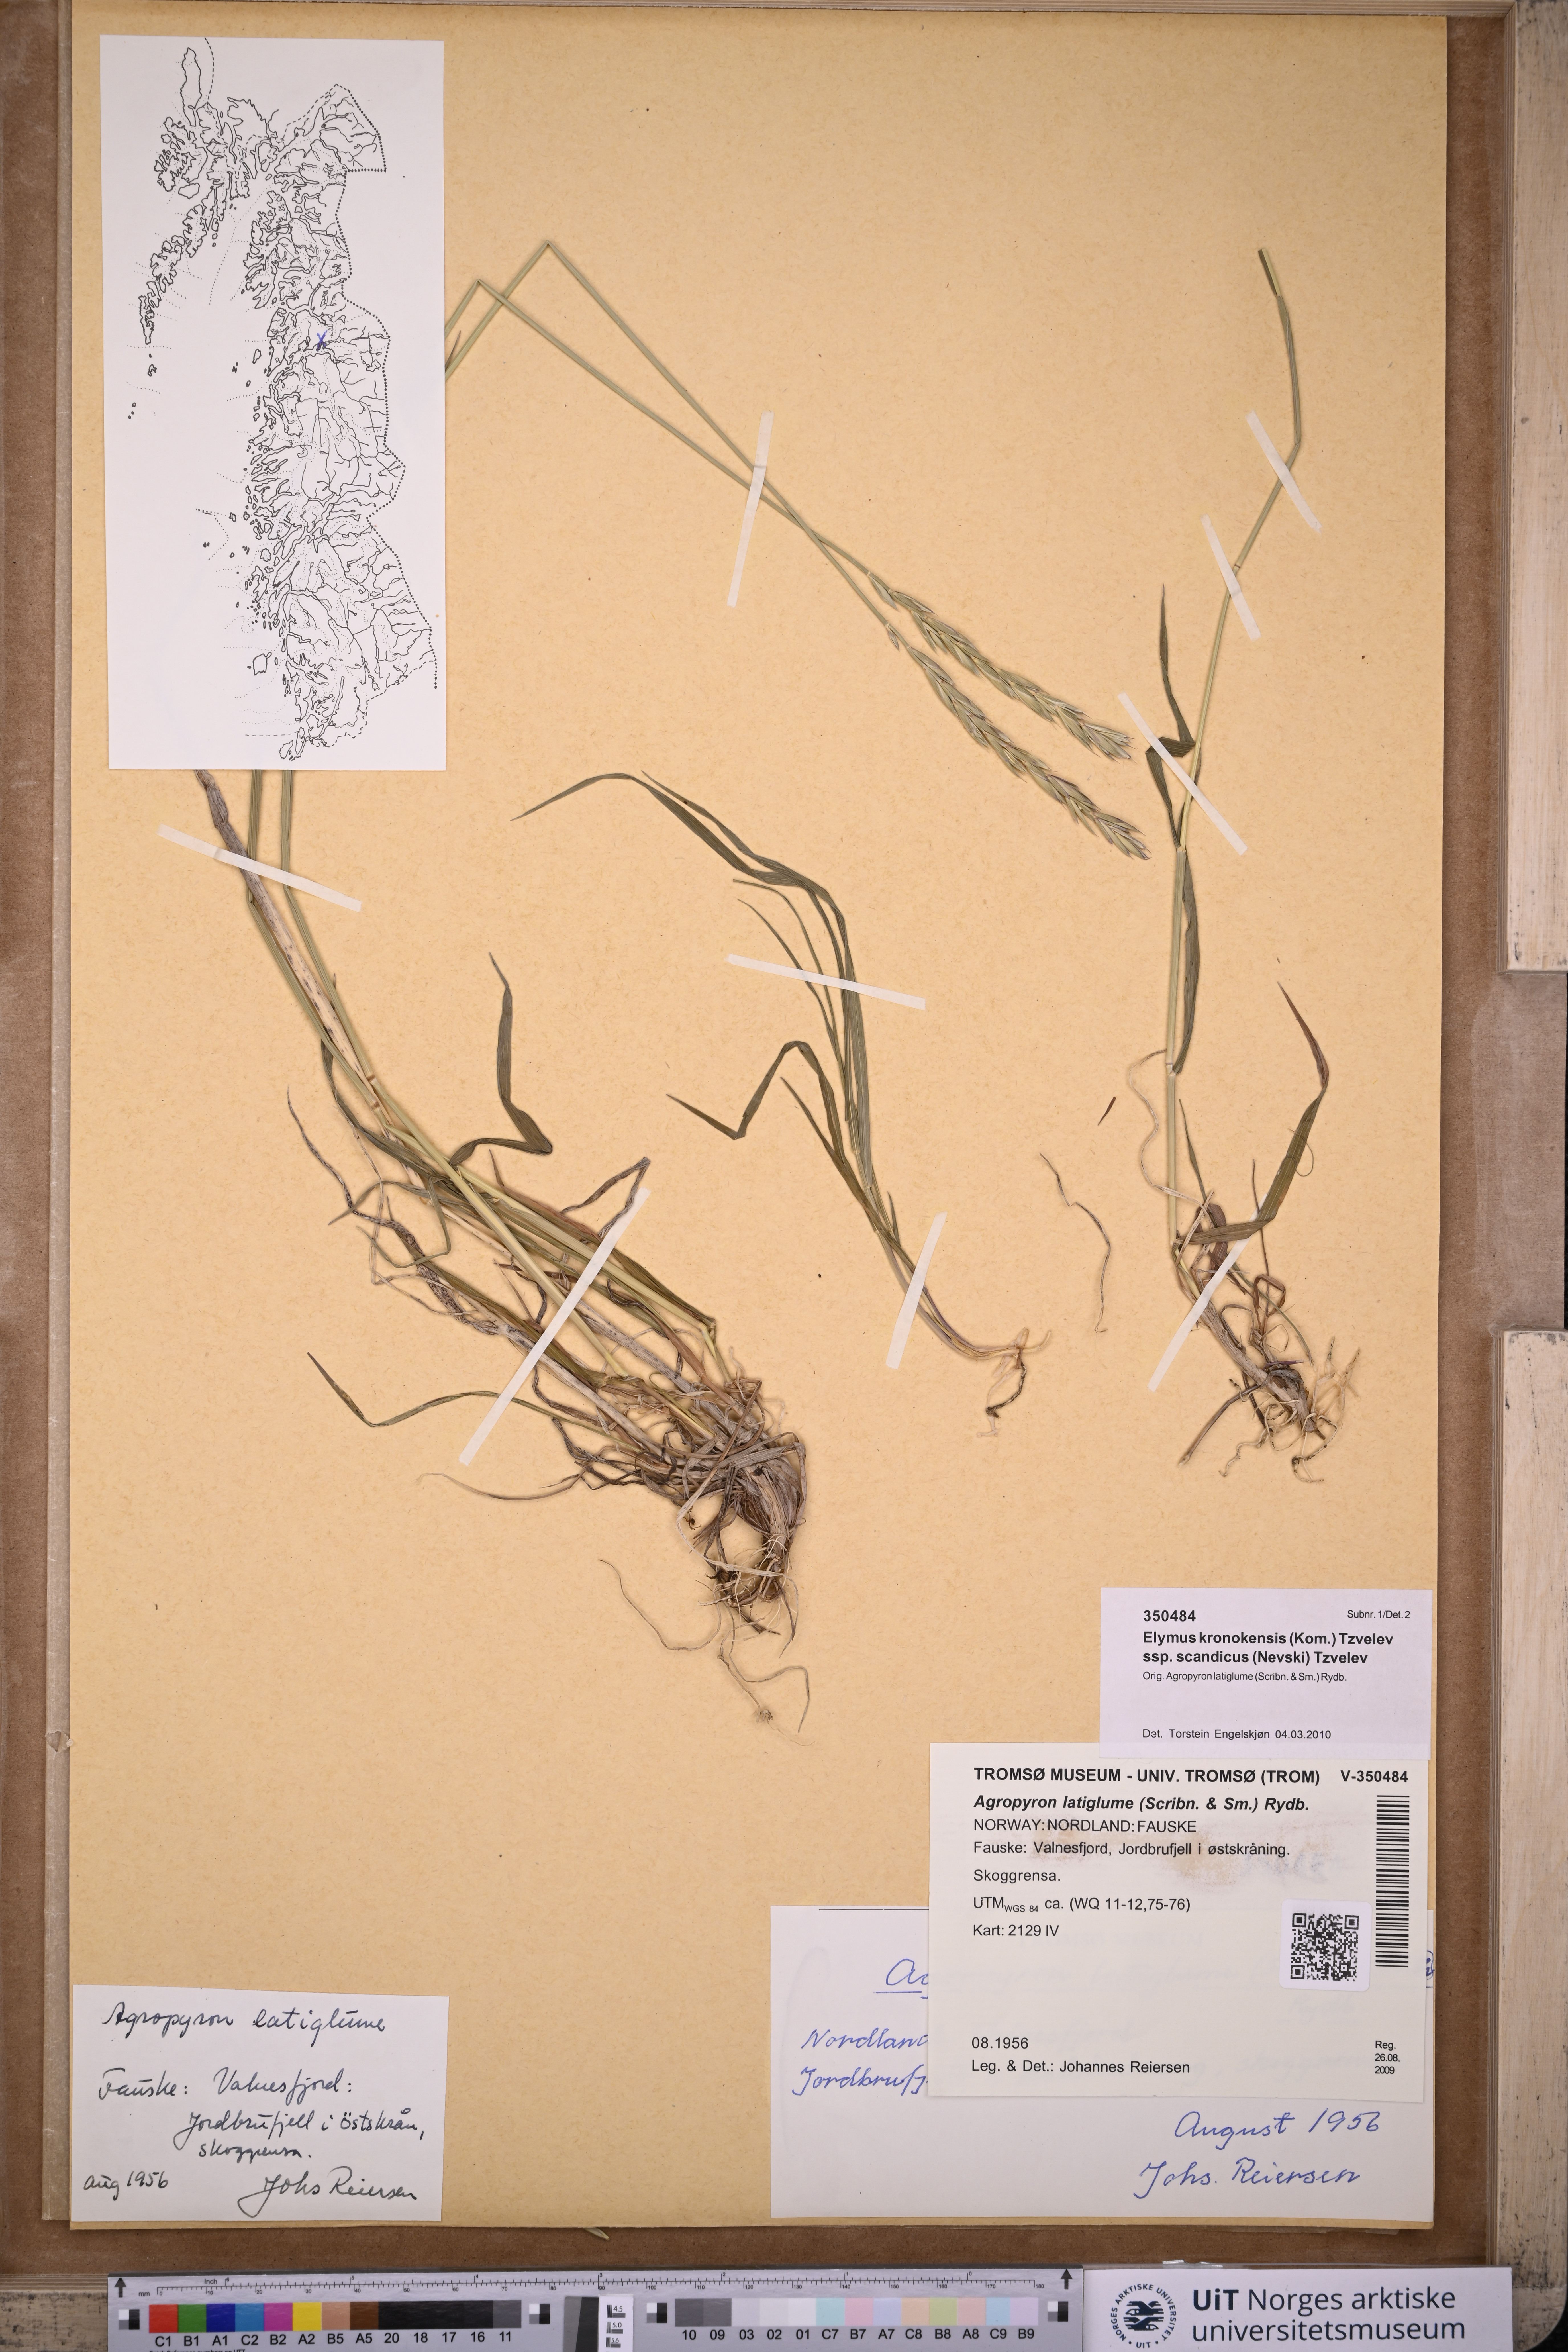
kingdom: Plantae
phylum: Tracheophyta
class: Liliopsida
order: Poales
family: Poaceae
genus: Elymus
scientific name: Elymus macrourus
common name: Northern wheatgrass
